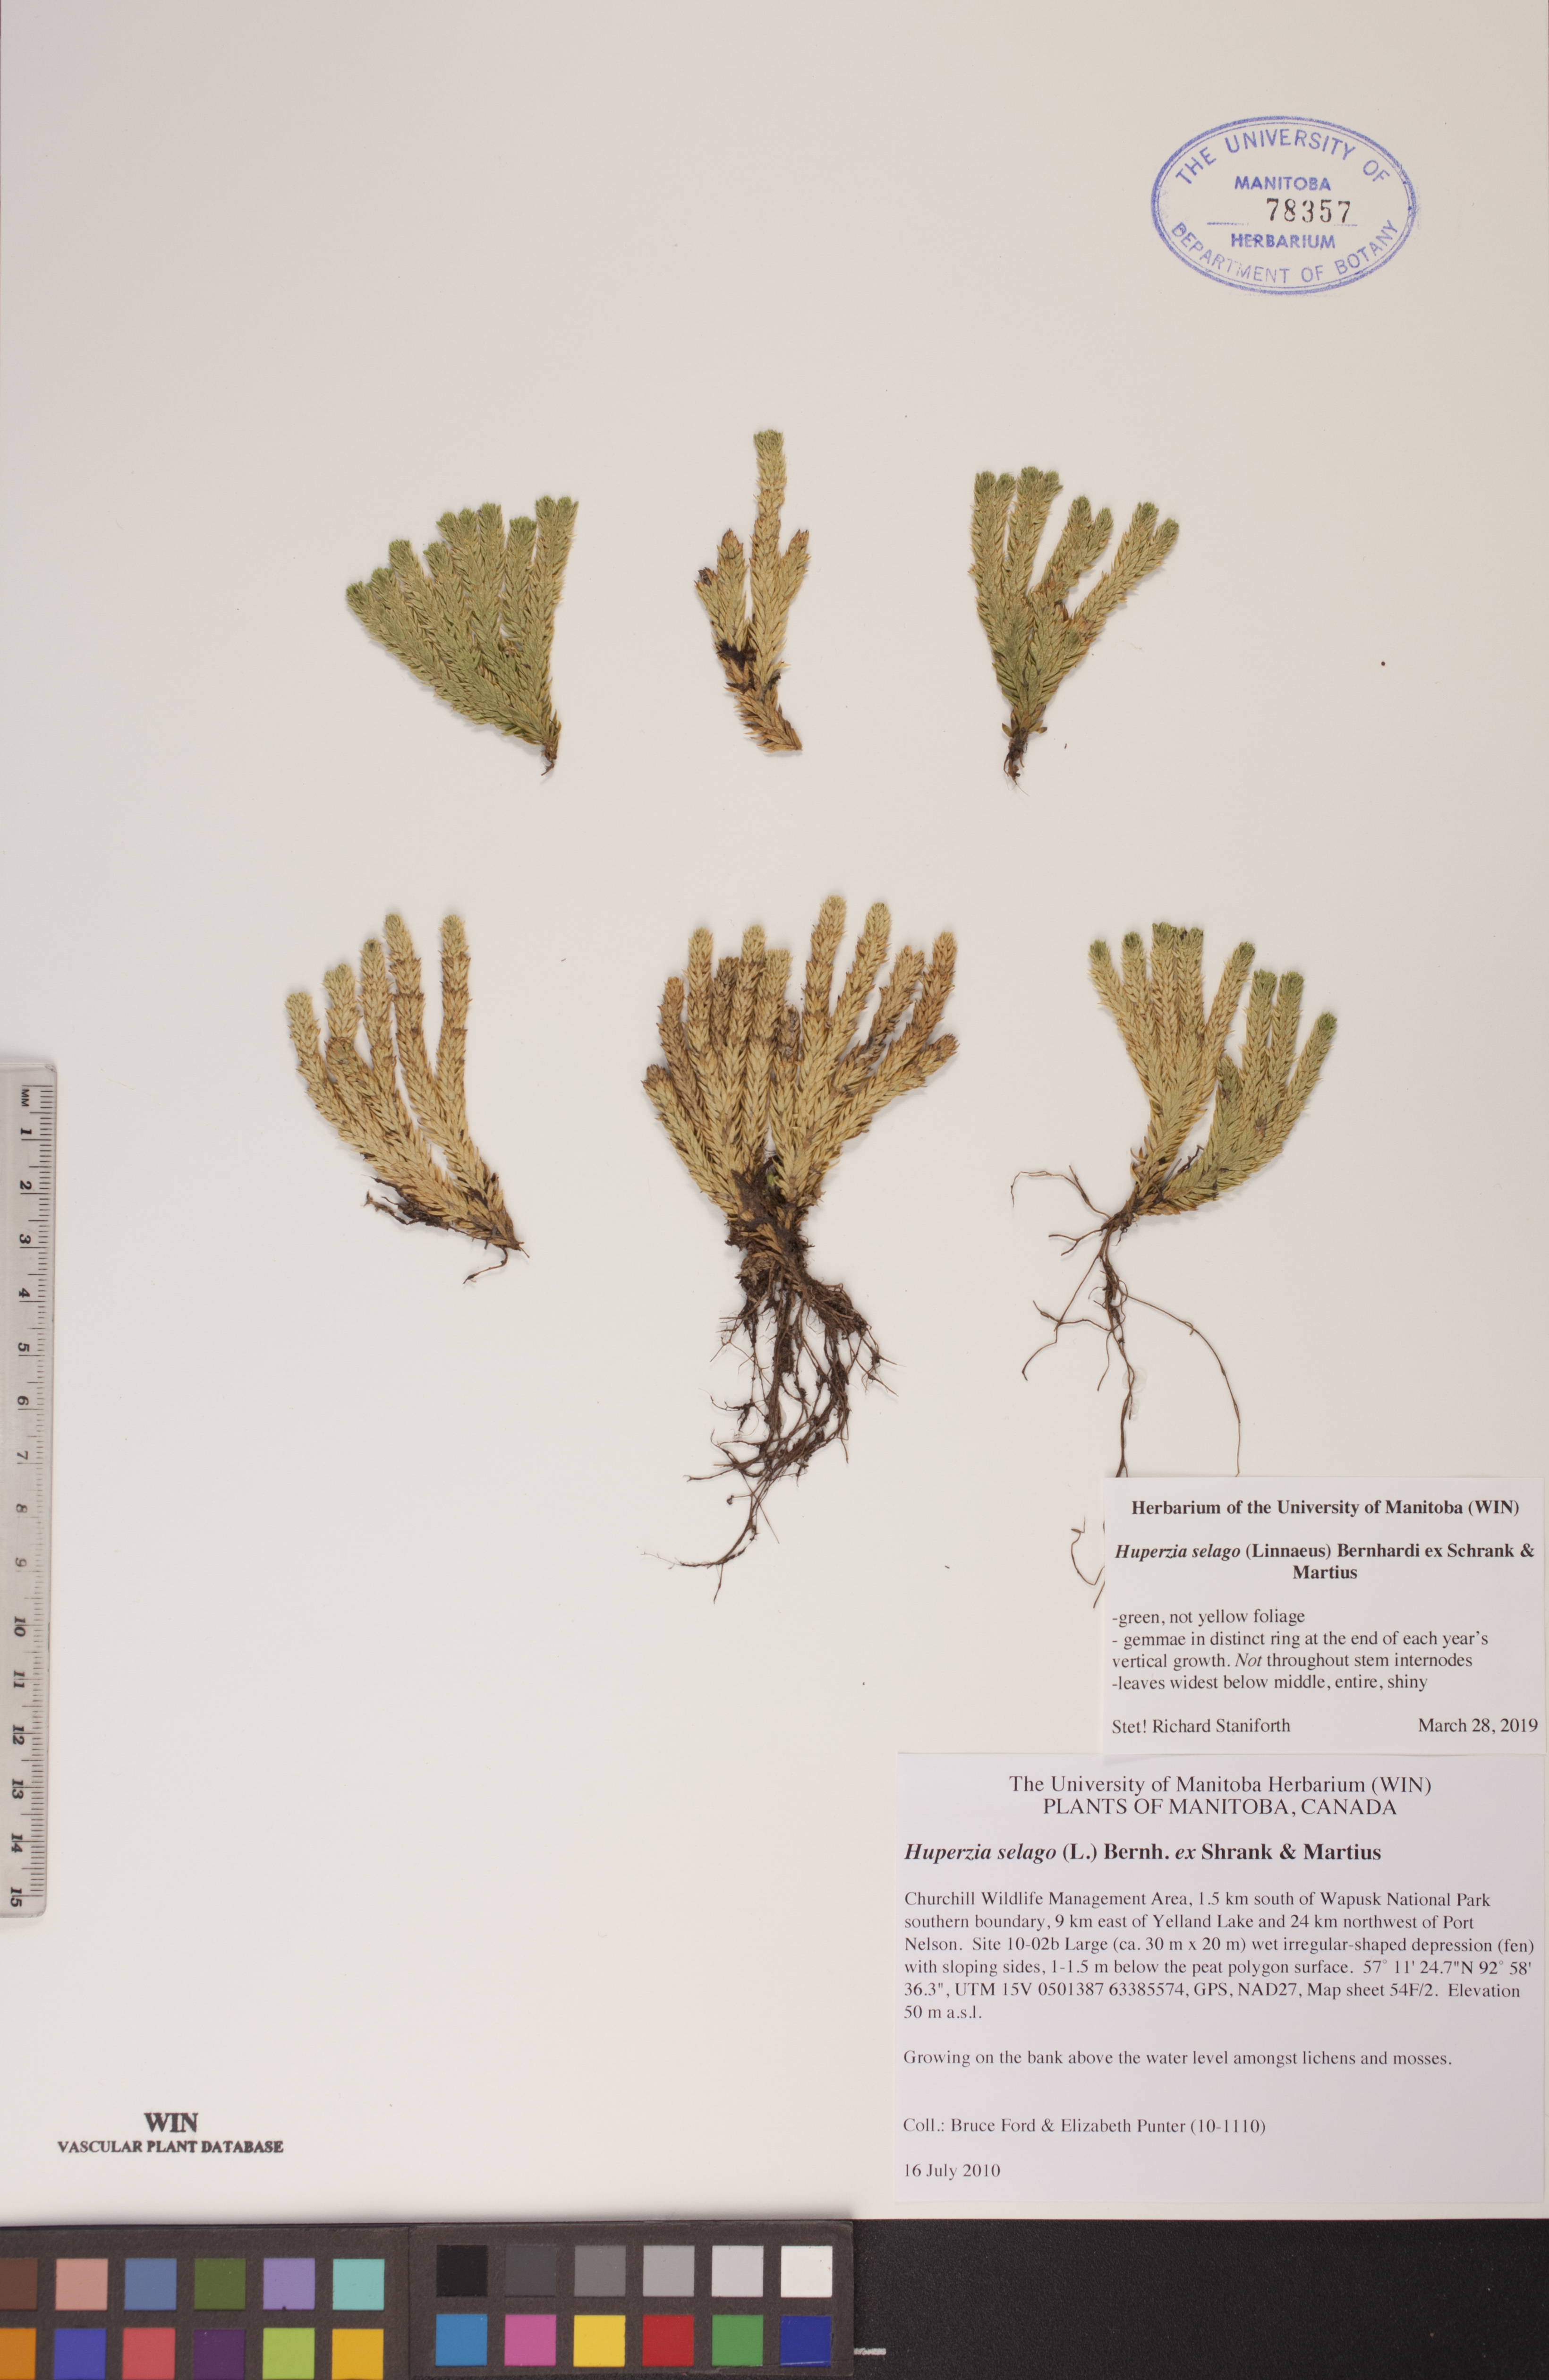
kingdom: Plantae
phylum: Tracheophyta
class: Lycopodiopsida
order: Lycopodiales
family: Lycopodiaceae
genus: Huperzia
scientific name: Huperzia selago
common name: Northern firmoss
